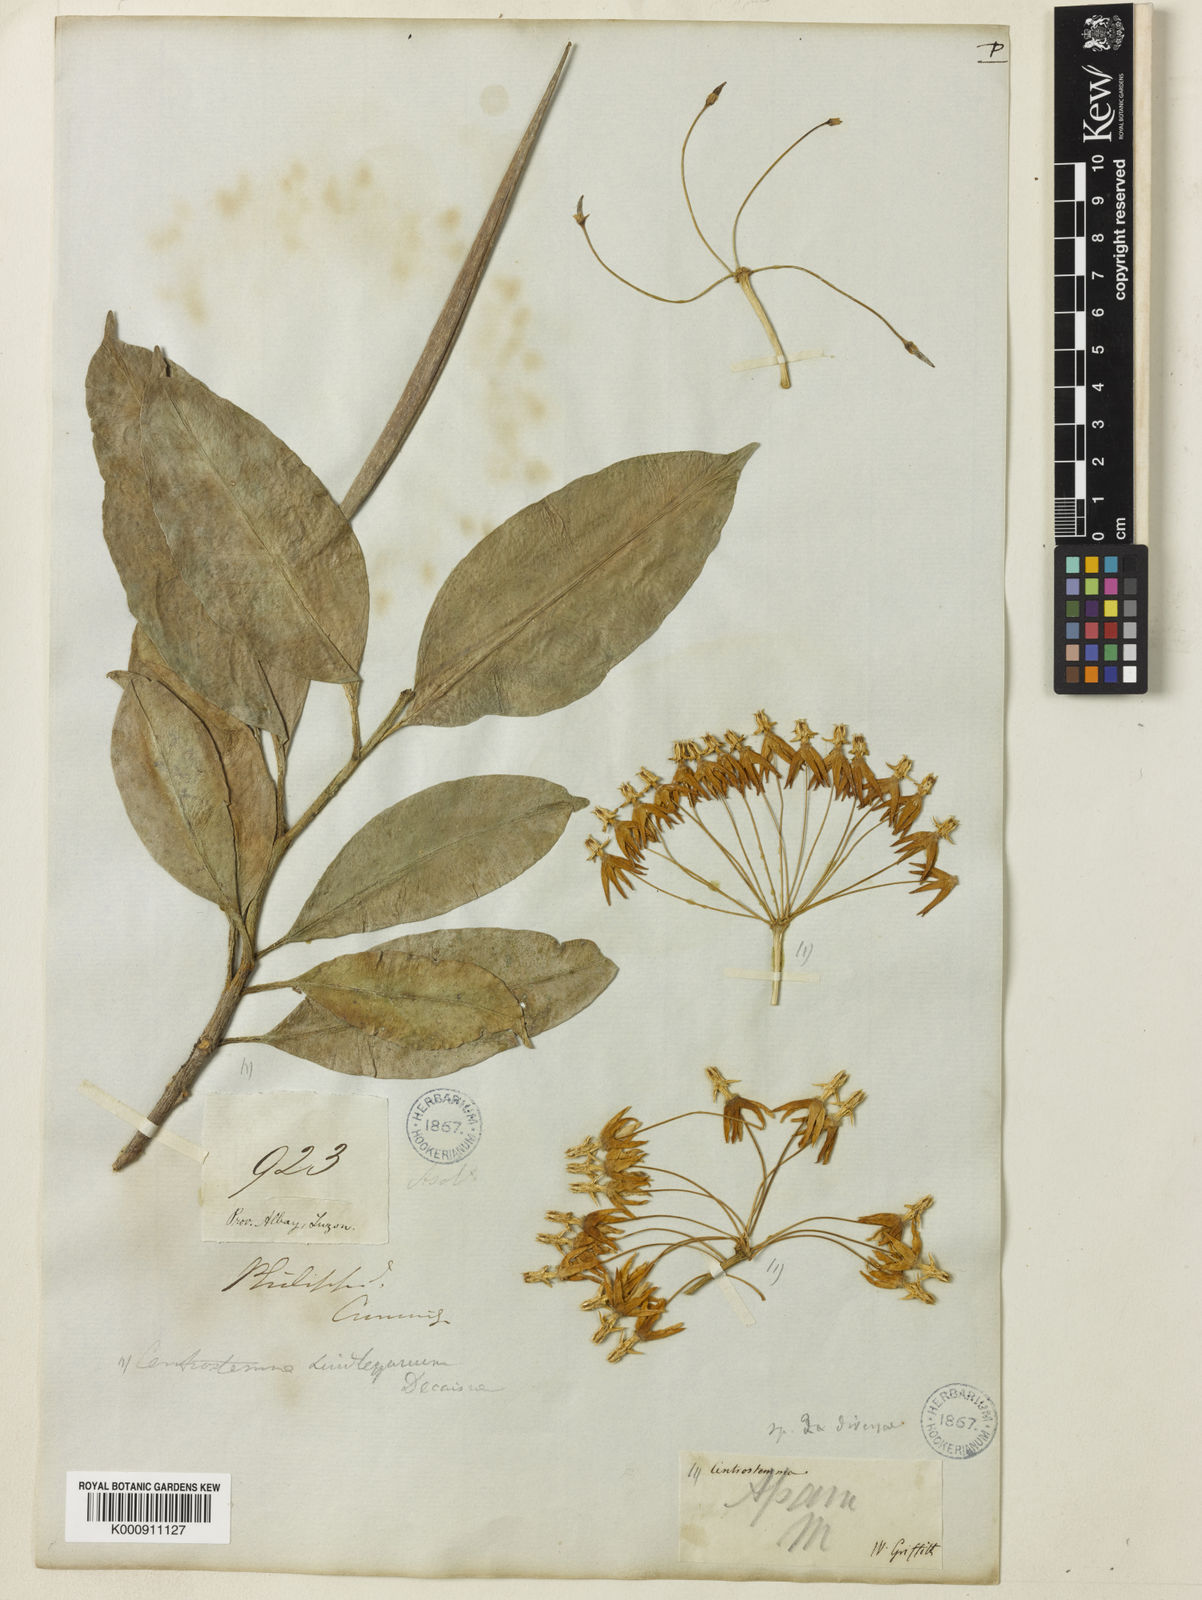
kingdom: Plantae
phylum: Tracheophyta
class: Magnoliopsida
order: Gentianales
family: Apocynaceae
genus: Hoya
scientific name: Hoya multiflora
